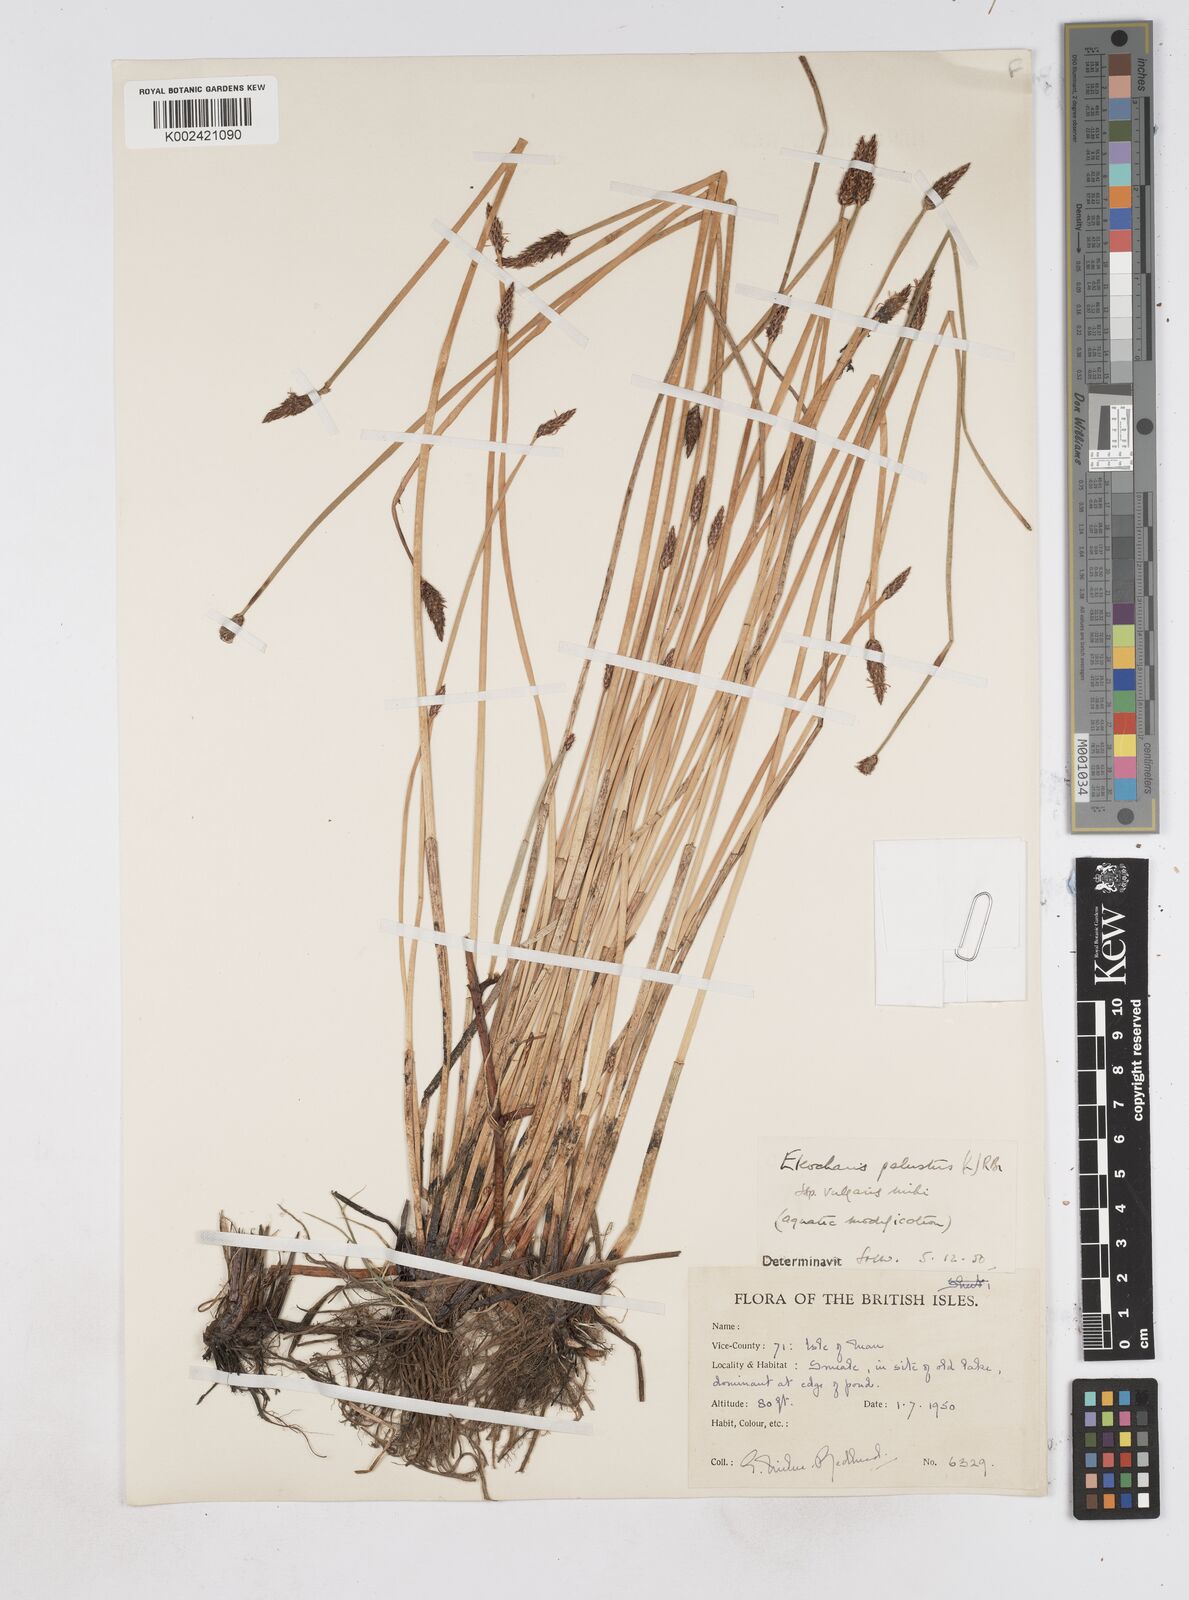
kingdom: Plantae
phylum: Tracheophyta
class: Liliopsida
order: Poales
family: Cyperaceae
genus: Eleocharis
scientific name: Eleocharis palustris
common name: Common spike-rush
